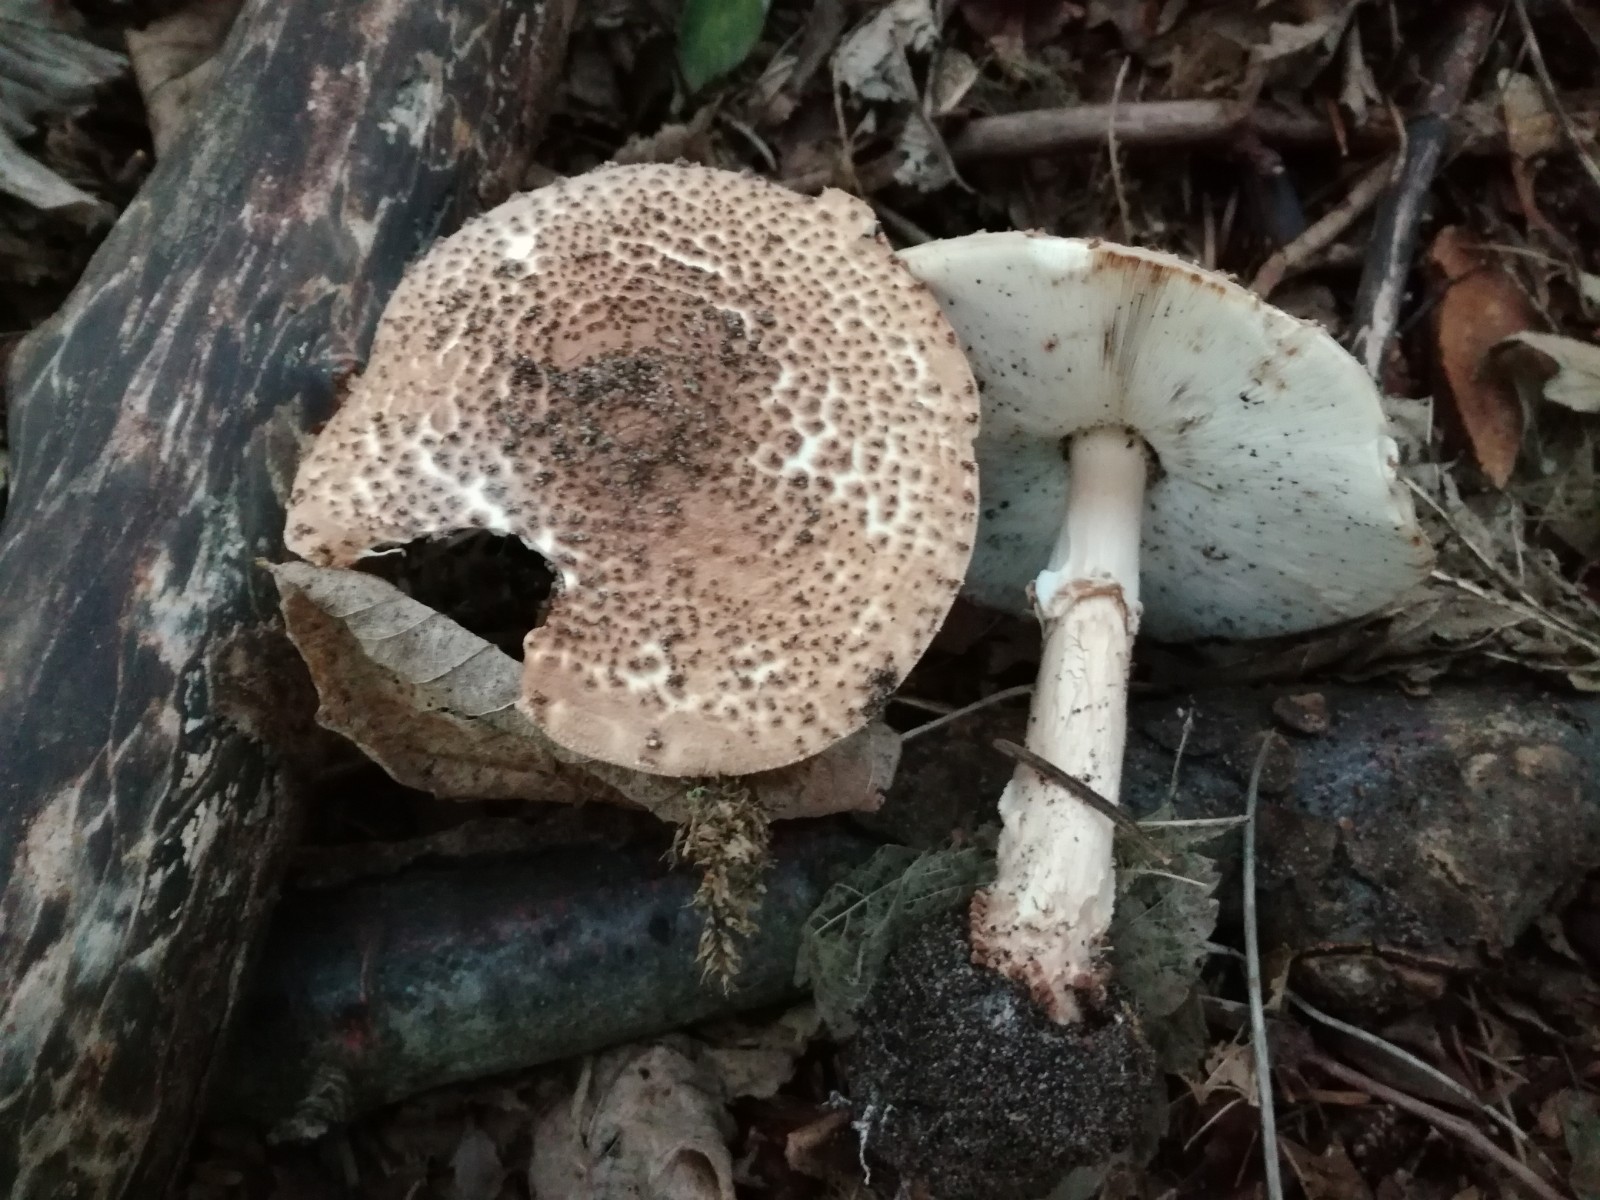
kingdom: Fungi
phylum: Basidiomycota
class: Agaricomycetes
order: Agaricales
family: Agaricaceae
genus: Echinoderma
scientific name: Echinoderma asperum
